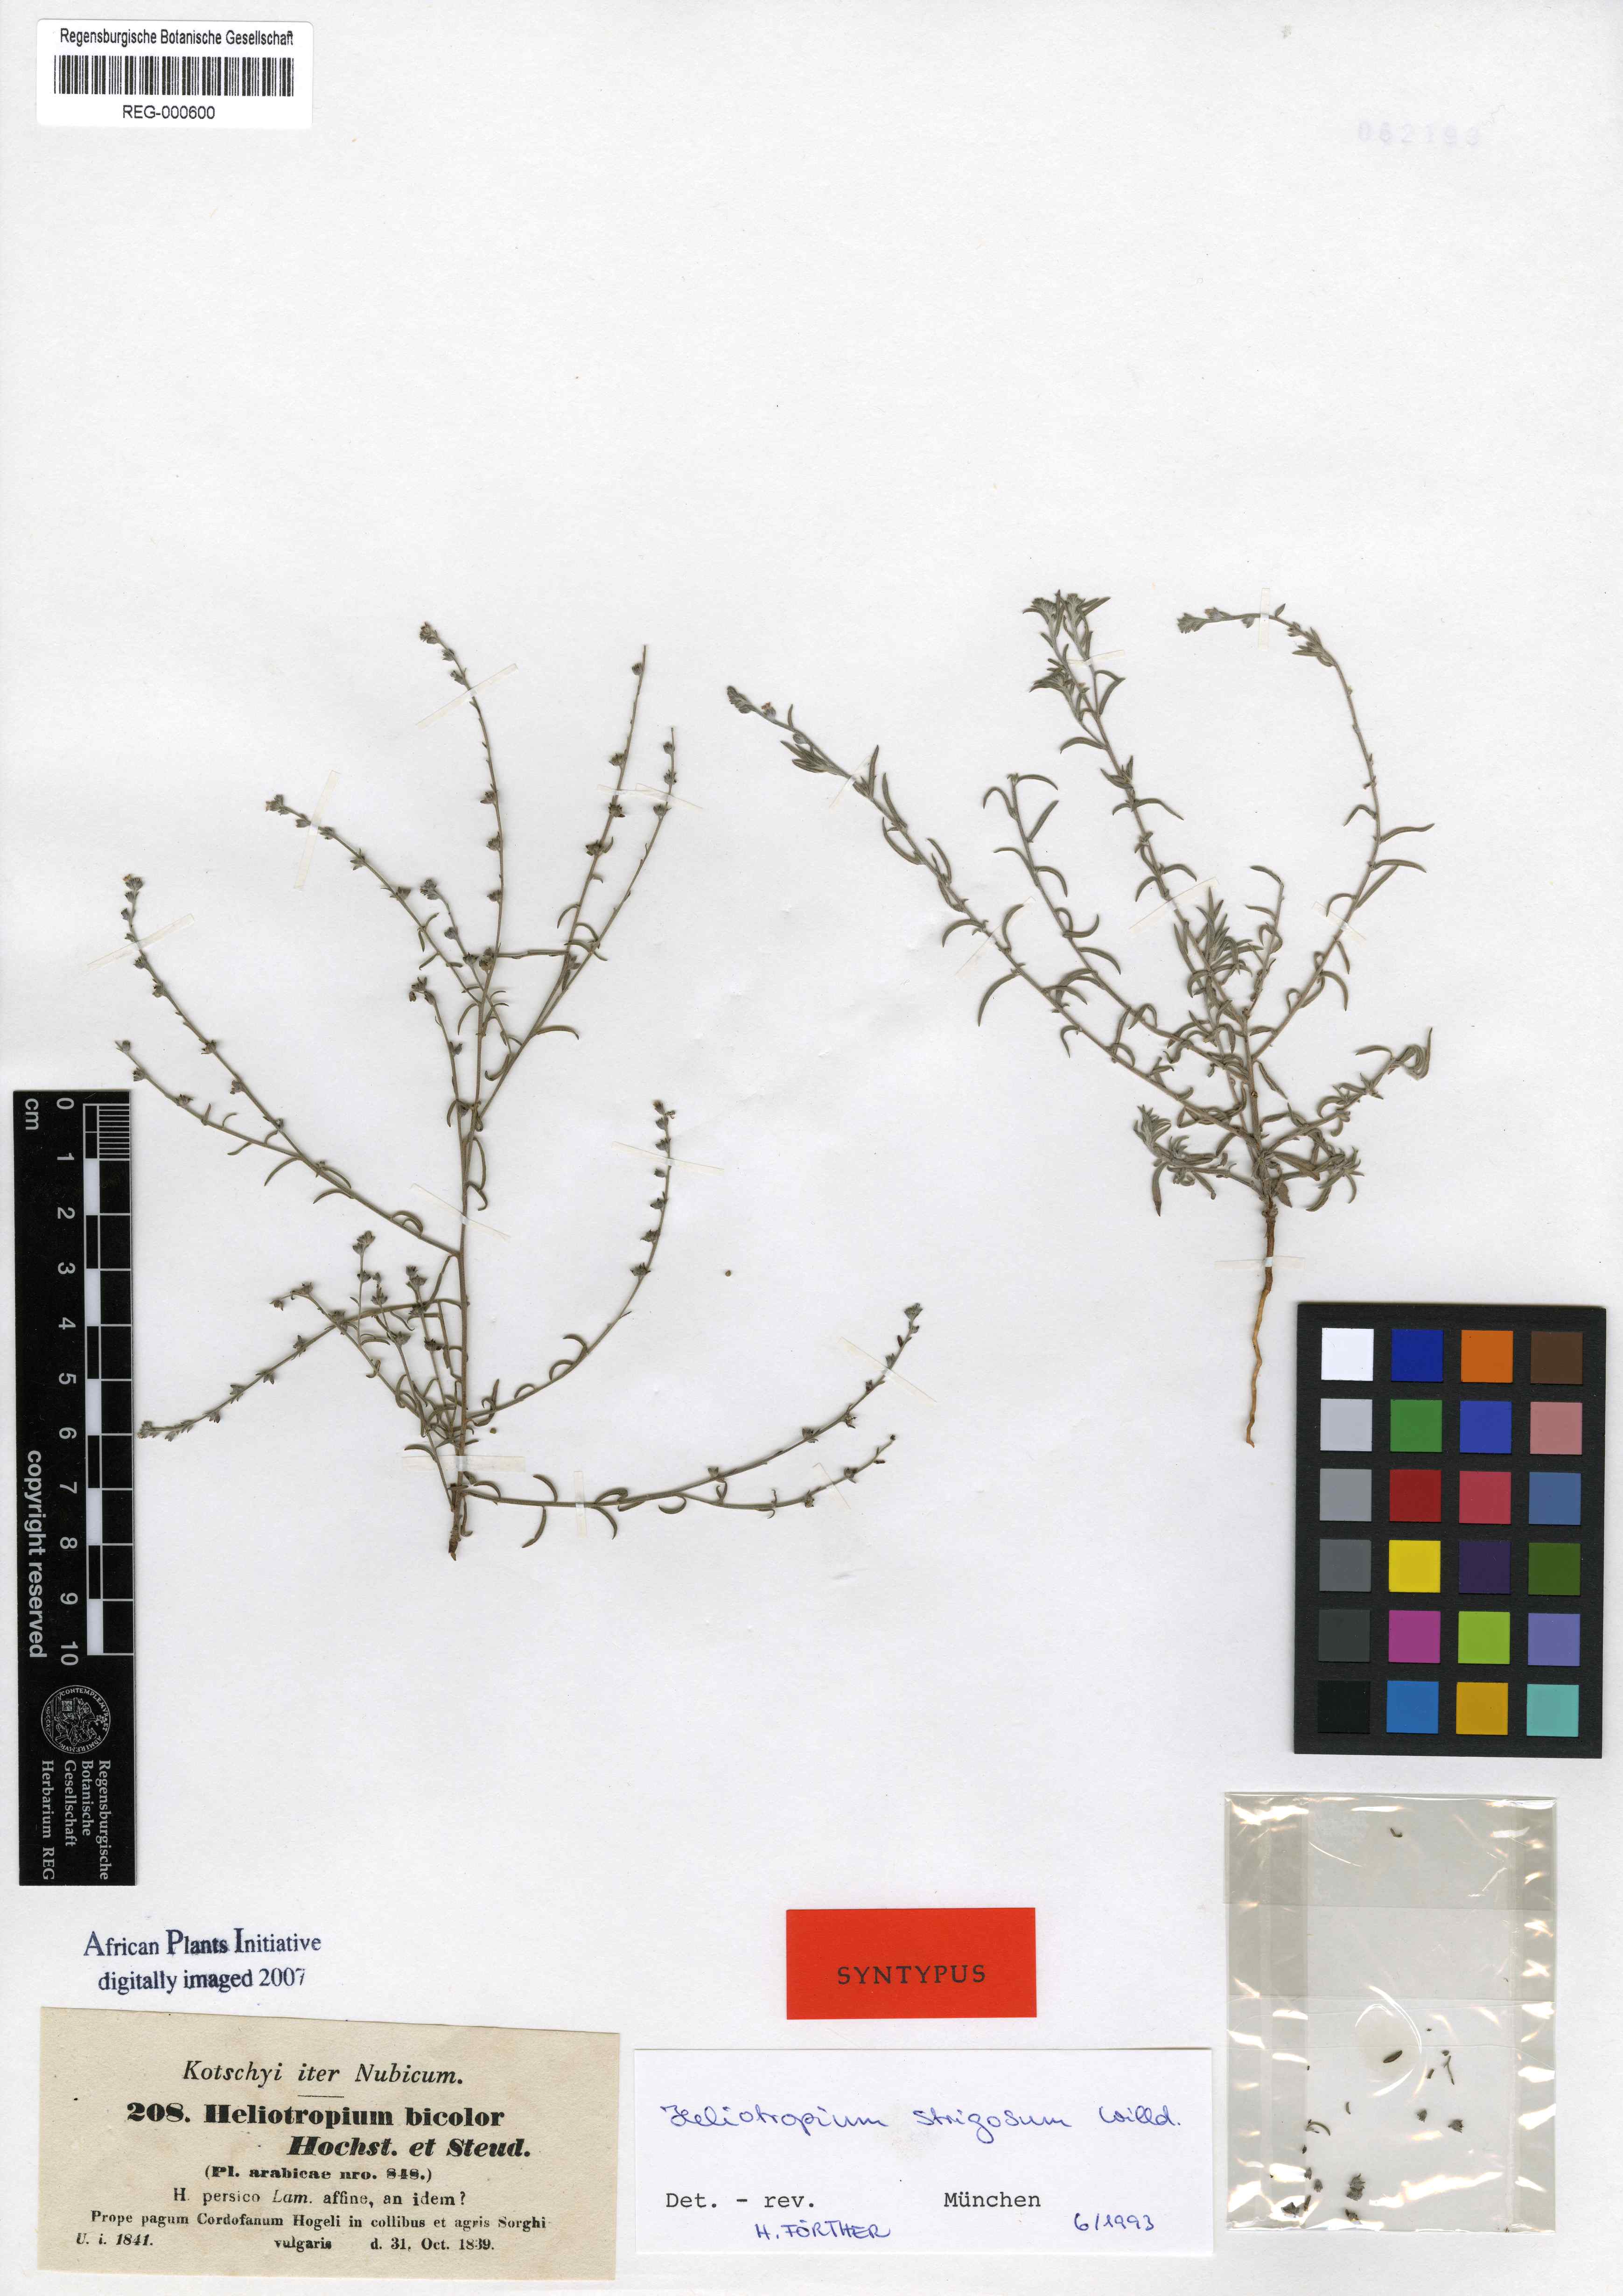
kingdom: Plantae
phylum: Tracheophyta
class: Magnoliopsida
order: Boraginales
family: Heliotropiaceae
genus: Euploca
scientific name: Euploca strigosa
